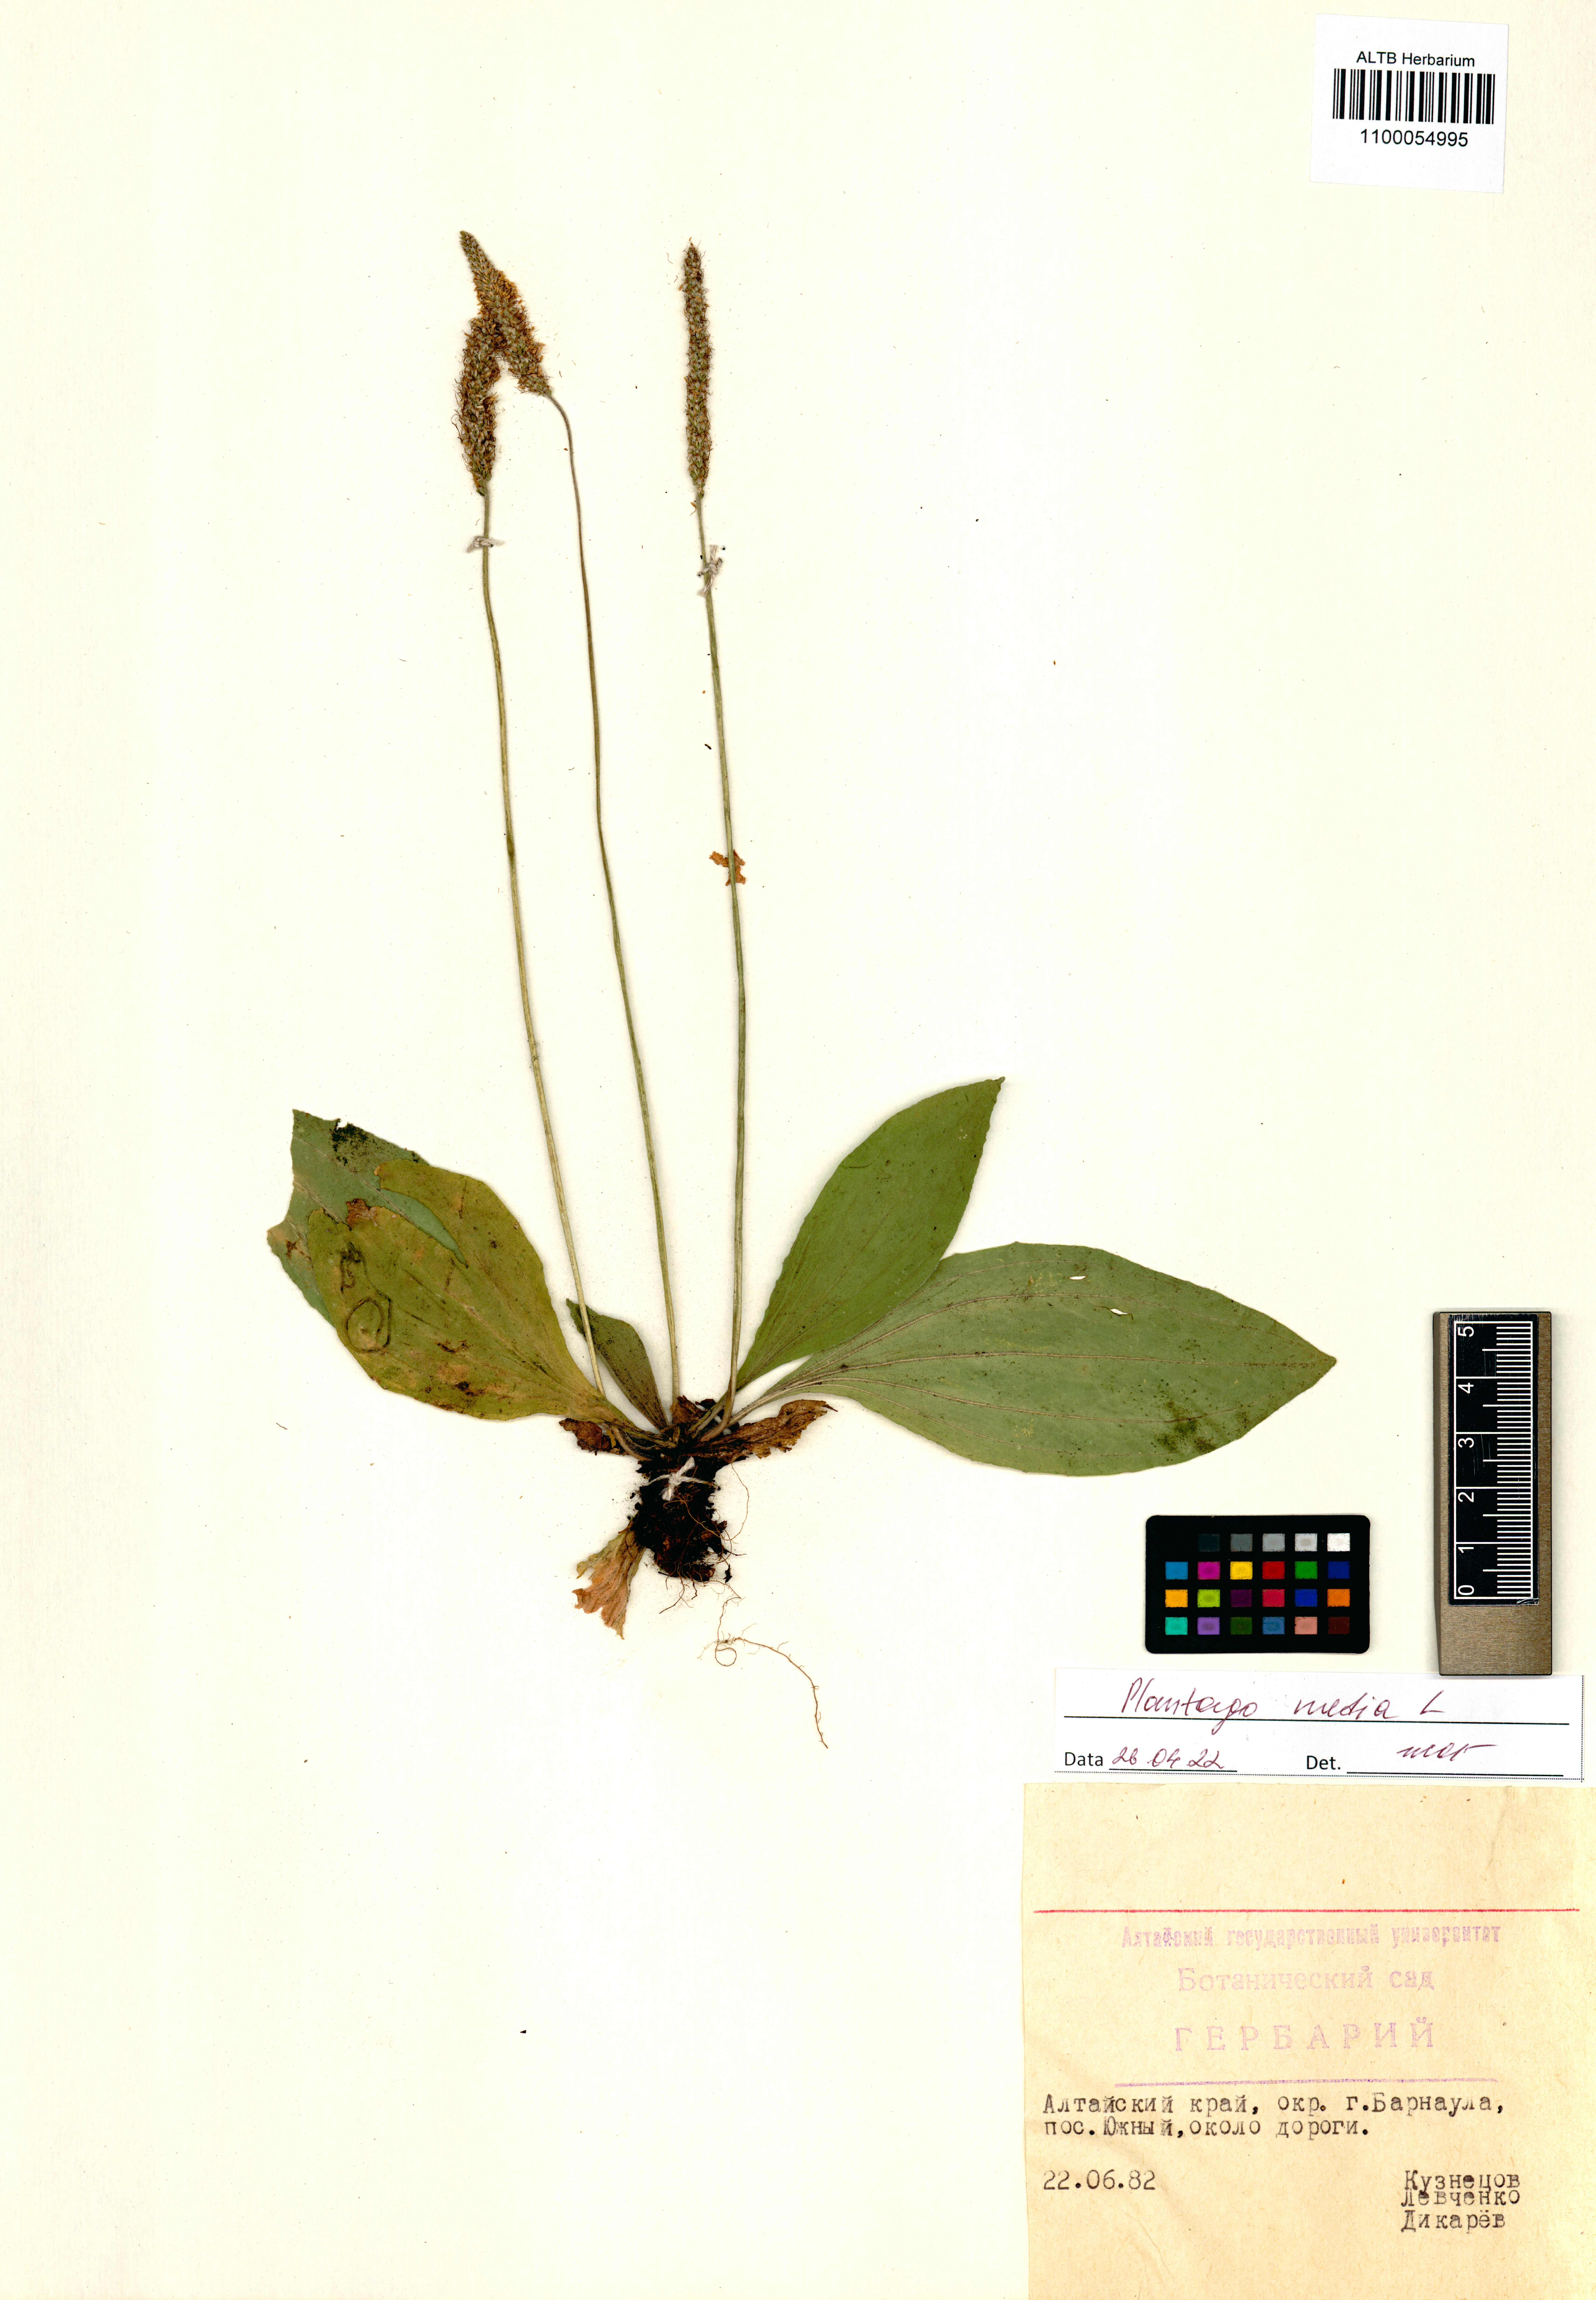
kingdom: Plantae
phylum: Tracheophyta
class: Magnoliopsida
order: Lamiales
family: Plantaginaceae
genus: Plantago
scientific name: Plantago media
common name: Hoary plantain
